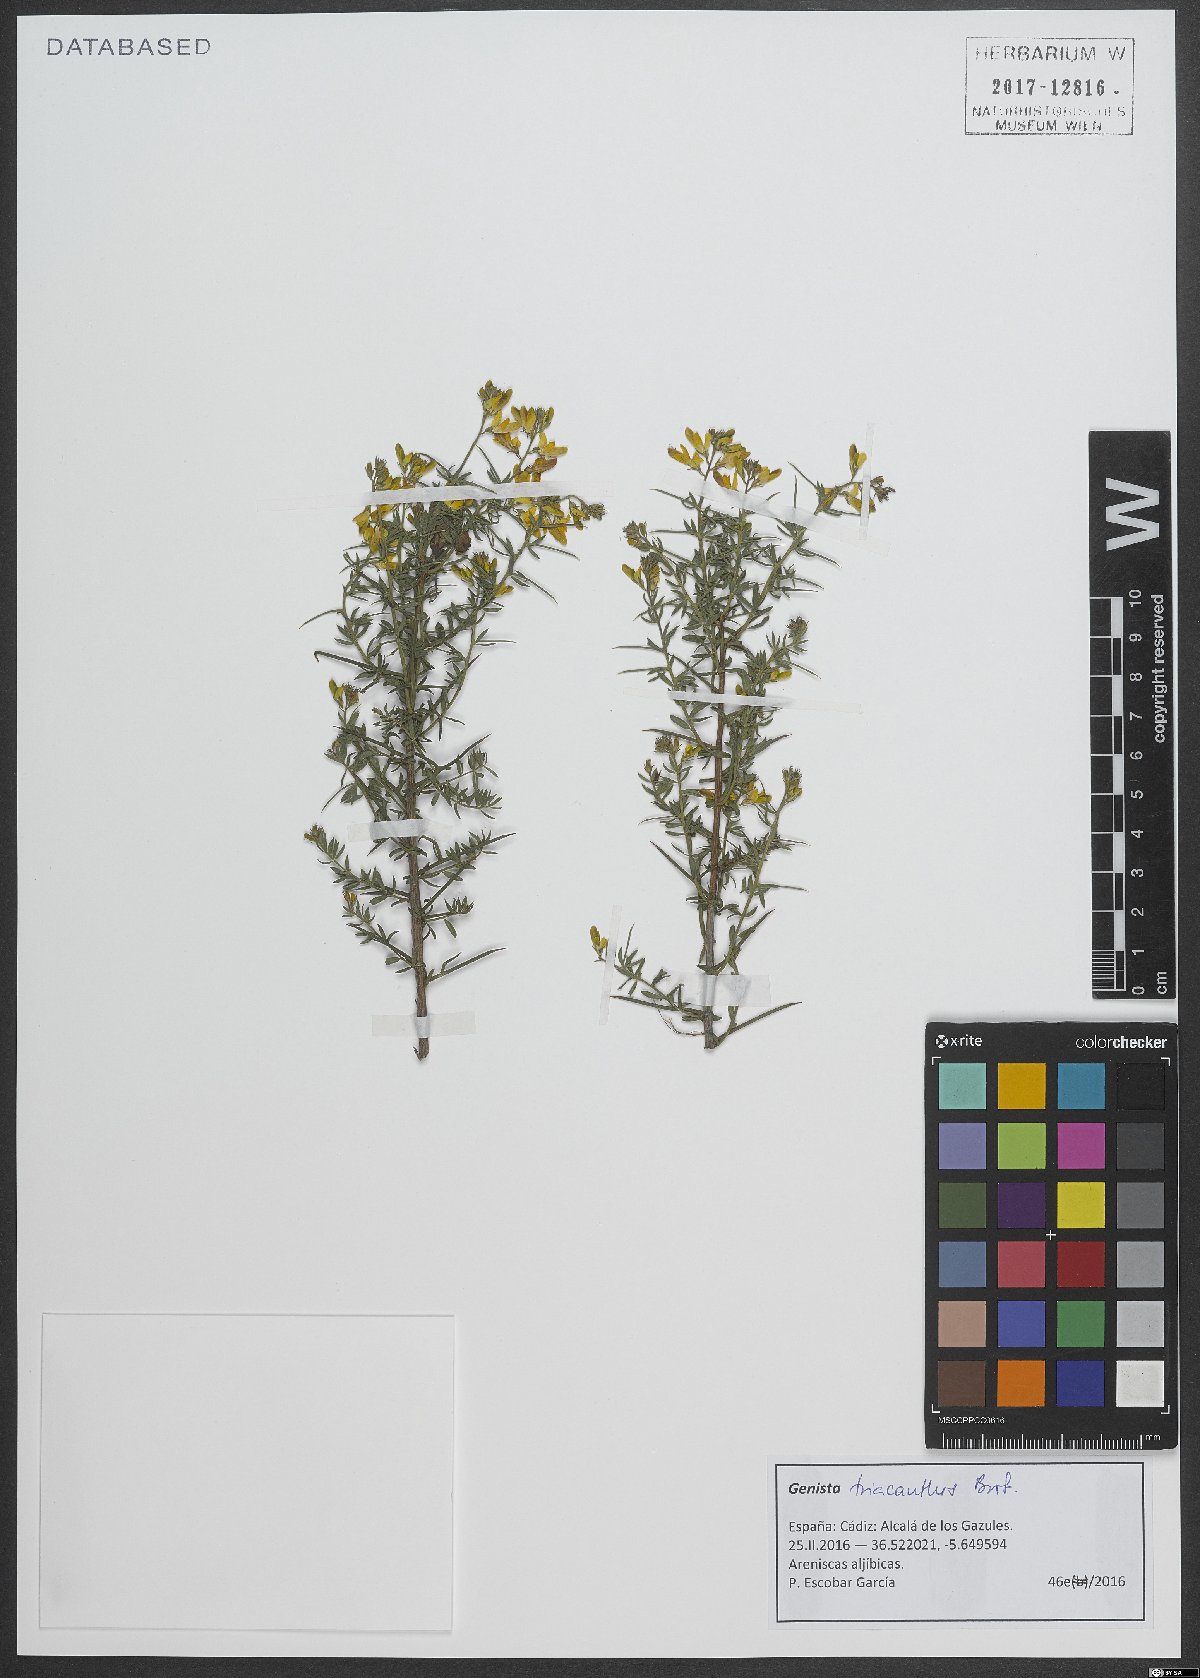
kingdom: Plantae
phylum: Tracheophyta
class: Magnoliopsida
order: Fabales
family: Fabaceae
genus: Genista
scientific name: Genista triacanthos
